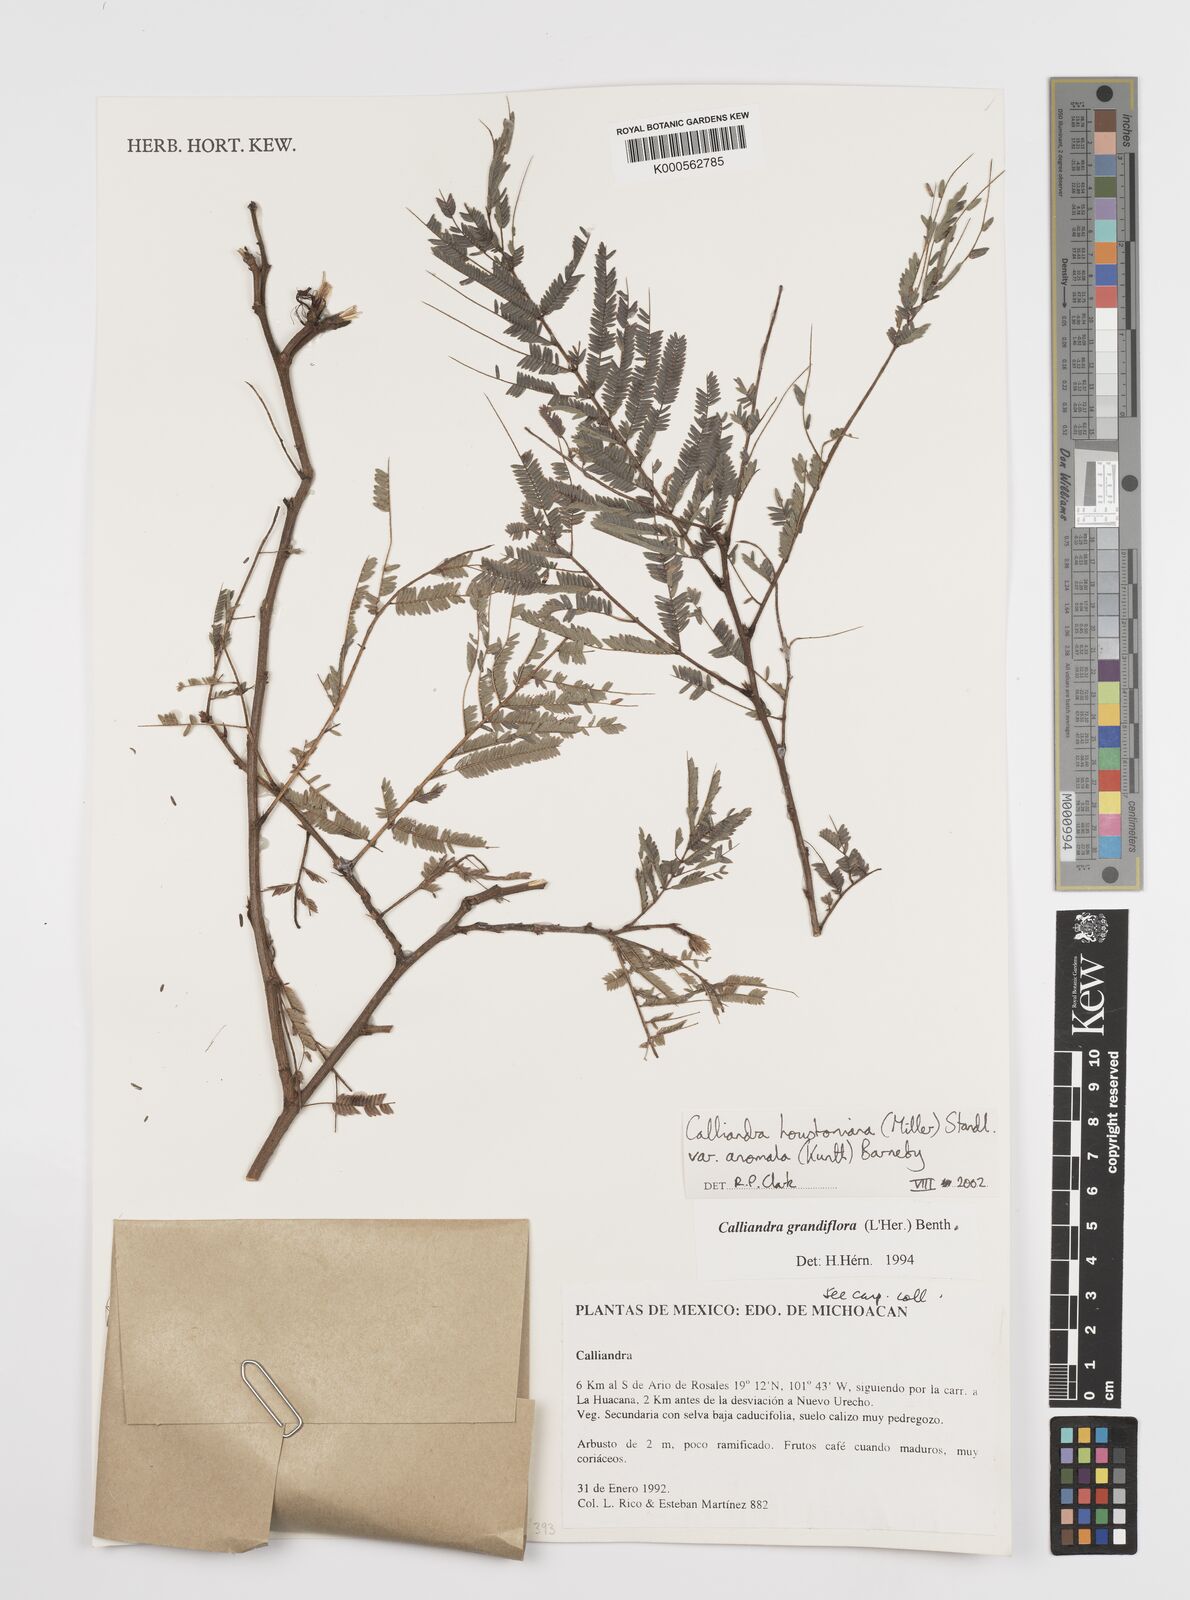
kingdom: Plantae
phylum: Tracheophyta
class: Magnoliopsida
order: Fabales
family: Fabaceae
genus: Calliandra
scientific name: Calliandra houstoniana
